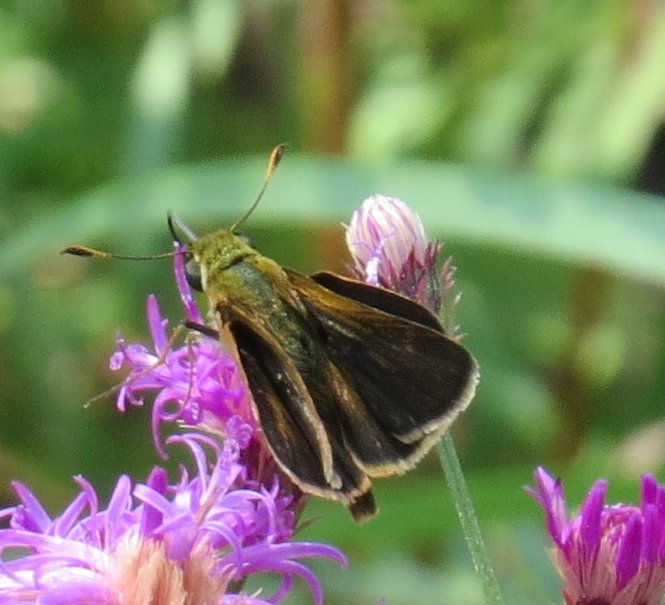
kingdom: Animalia
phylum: Arthropoda
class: Insecta
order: Lepidoptera
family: Hesperiidae
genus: Nastra
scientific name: Nastra neamathla
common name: Neamathla Skipper
